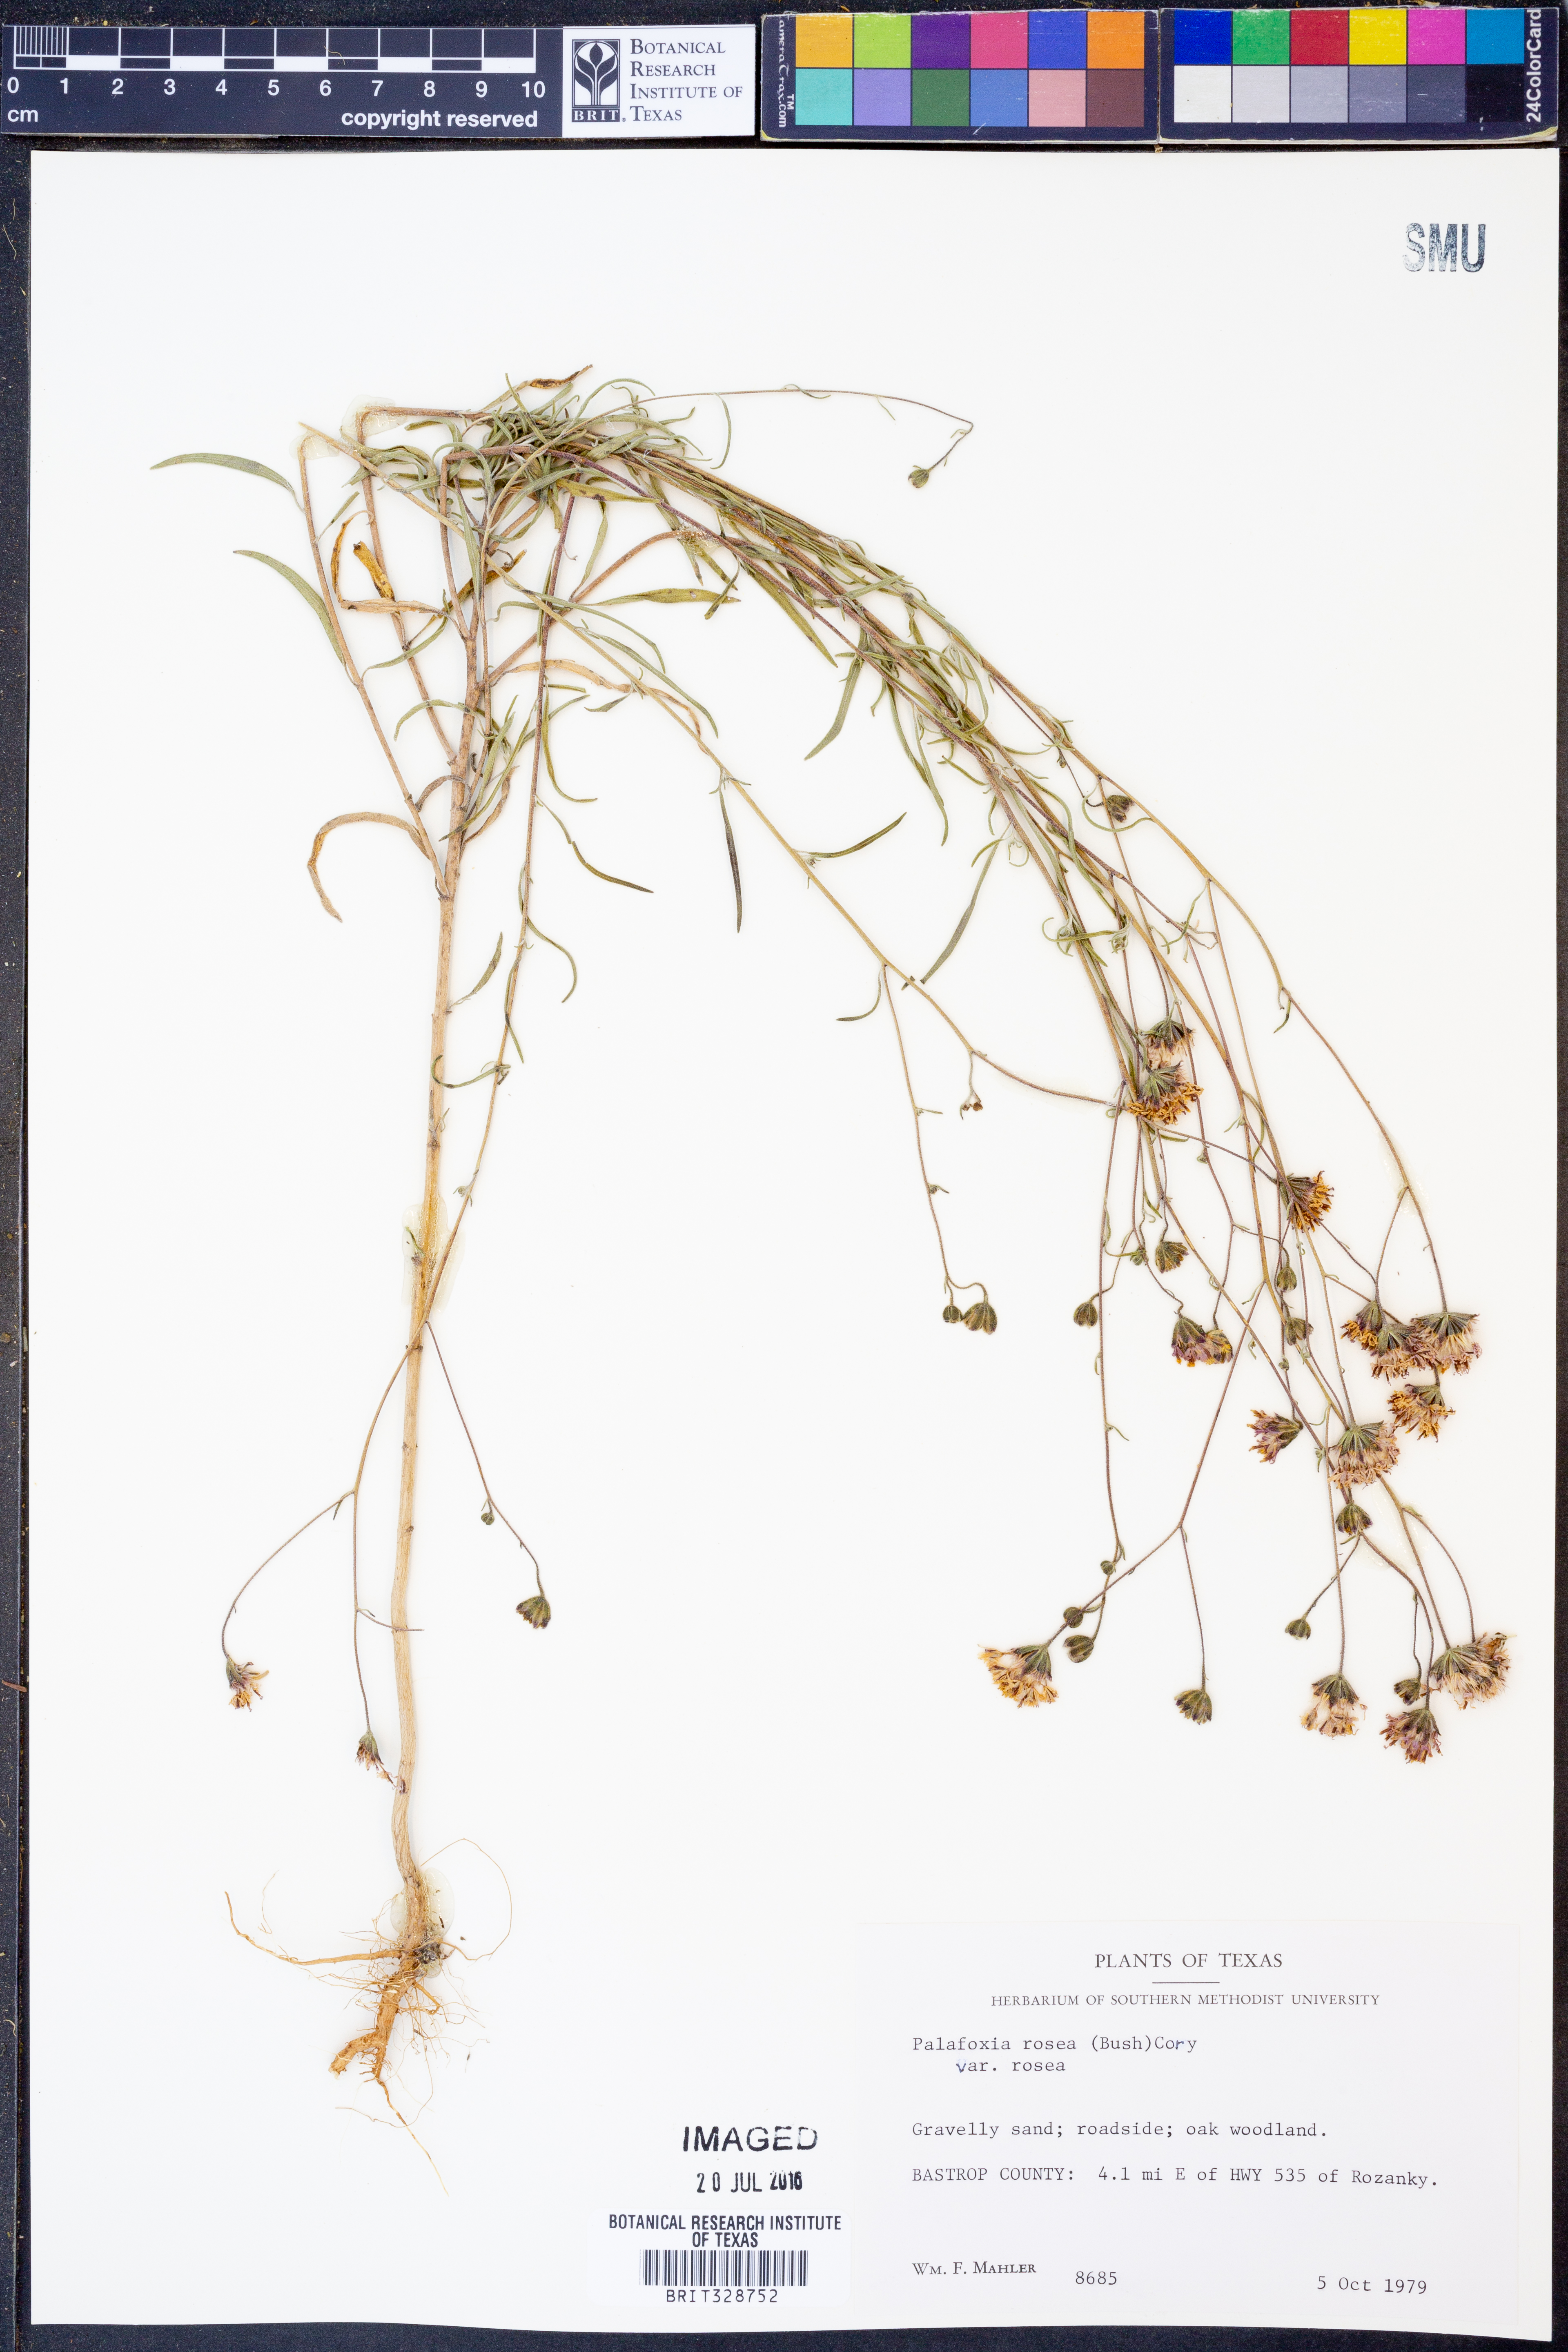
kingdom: Plantae
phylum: Tracheophyta
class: Magnoliopsida
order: Asterales
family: Asteraceae
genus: Palafoxia
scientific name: Palafoxia rosea
